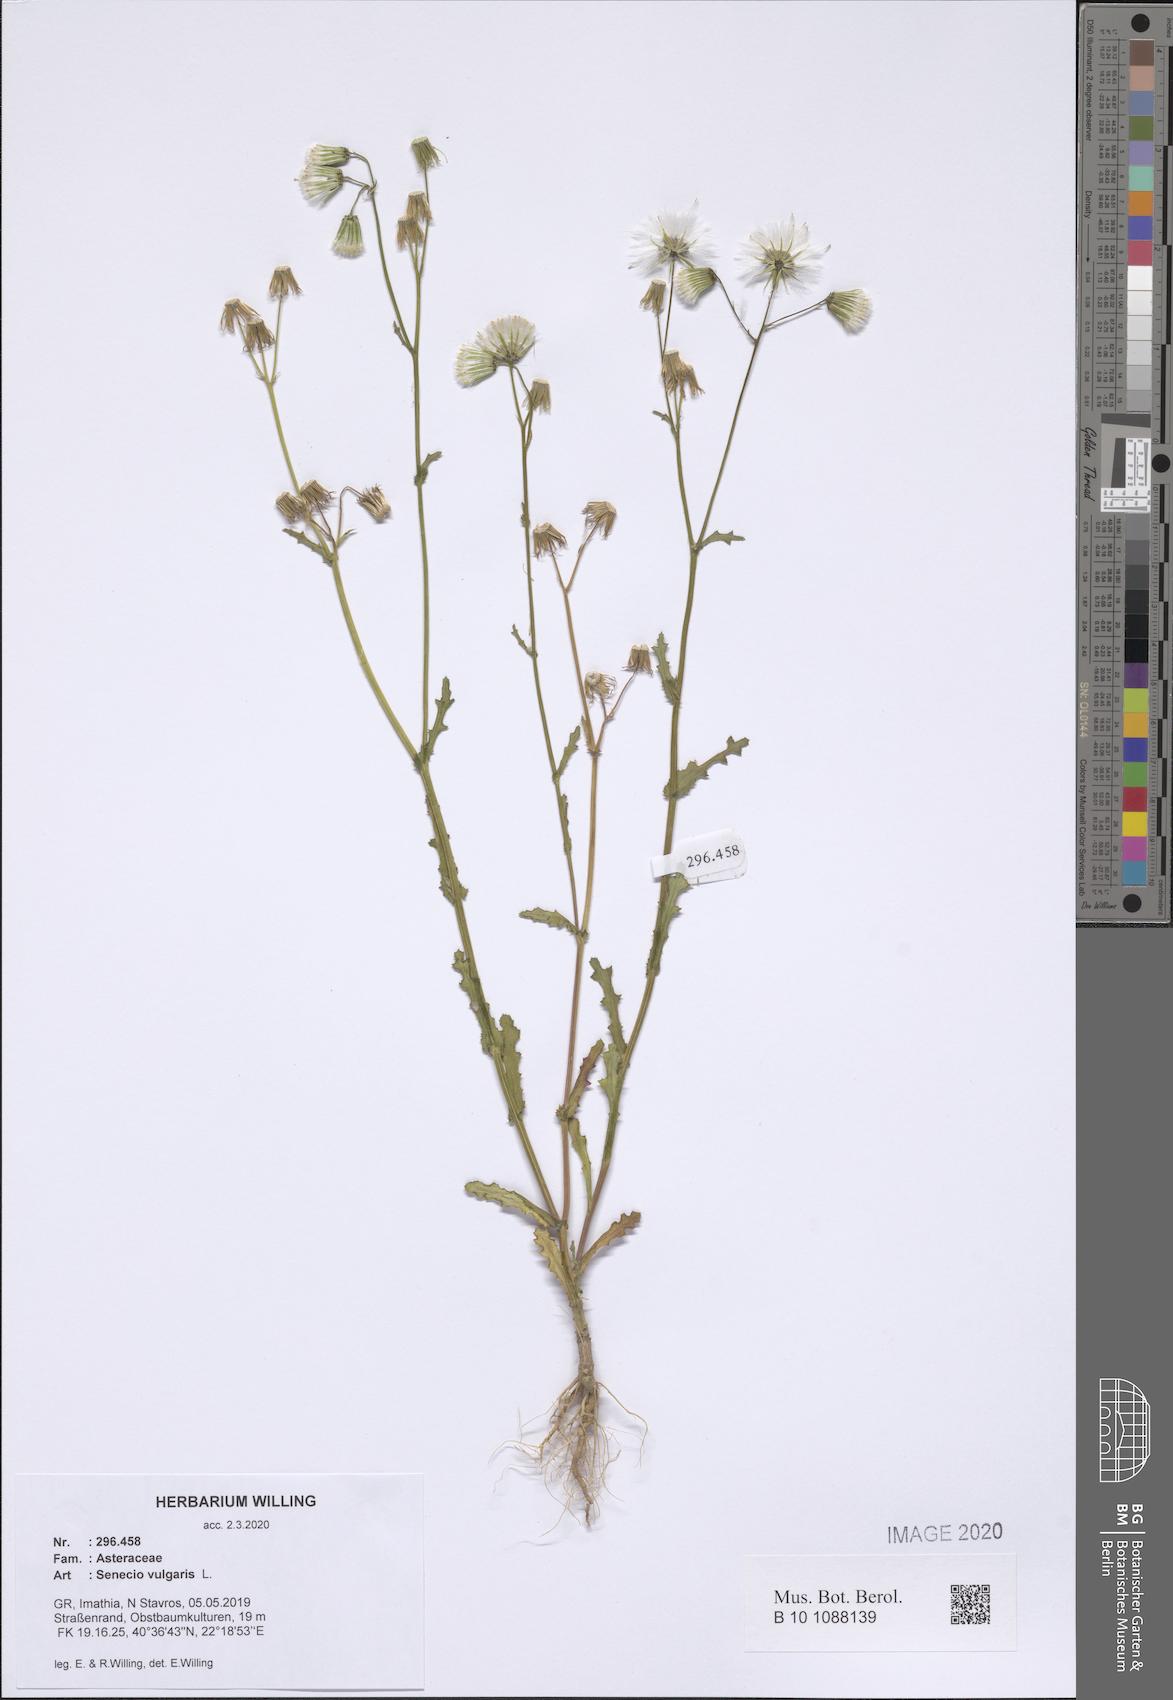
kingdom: Plantae
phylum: Tracheophyta
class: Magnoliopsida
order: Asterales
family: Asteraceae
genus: Senecio
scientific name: Senecio vulgaris
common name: Old-man-in-the-spring
